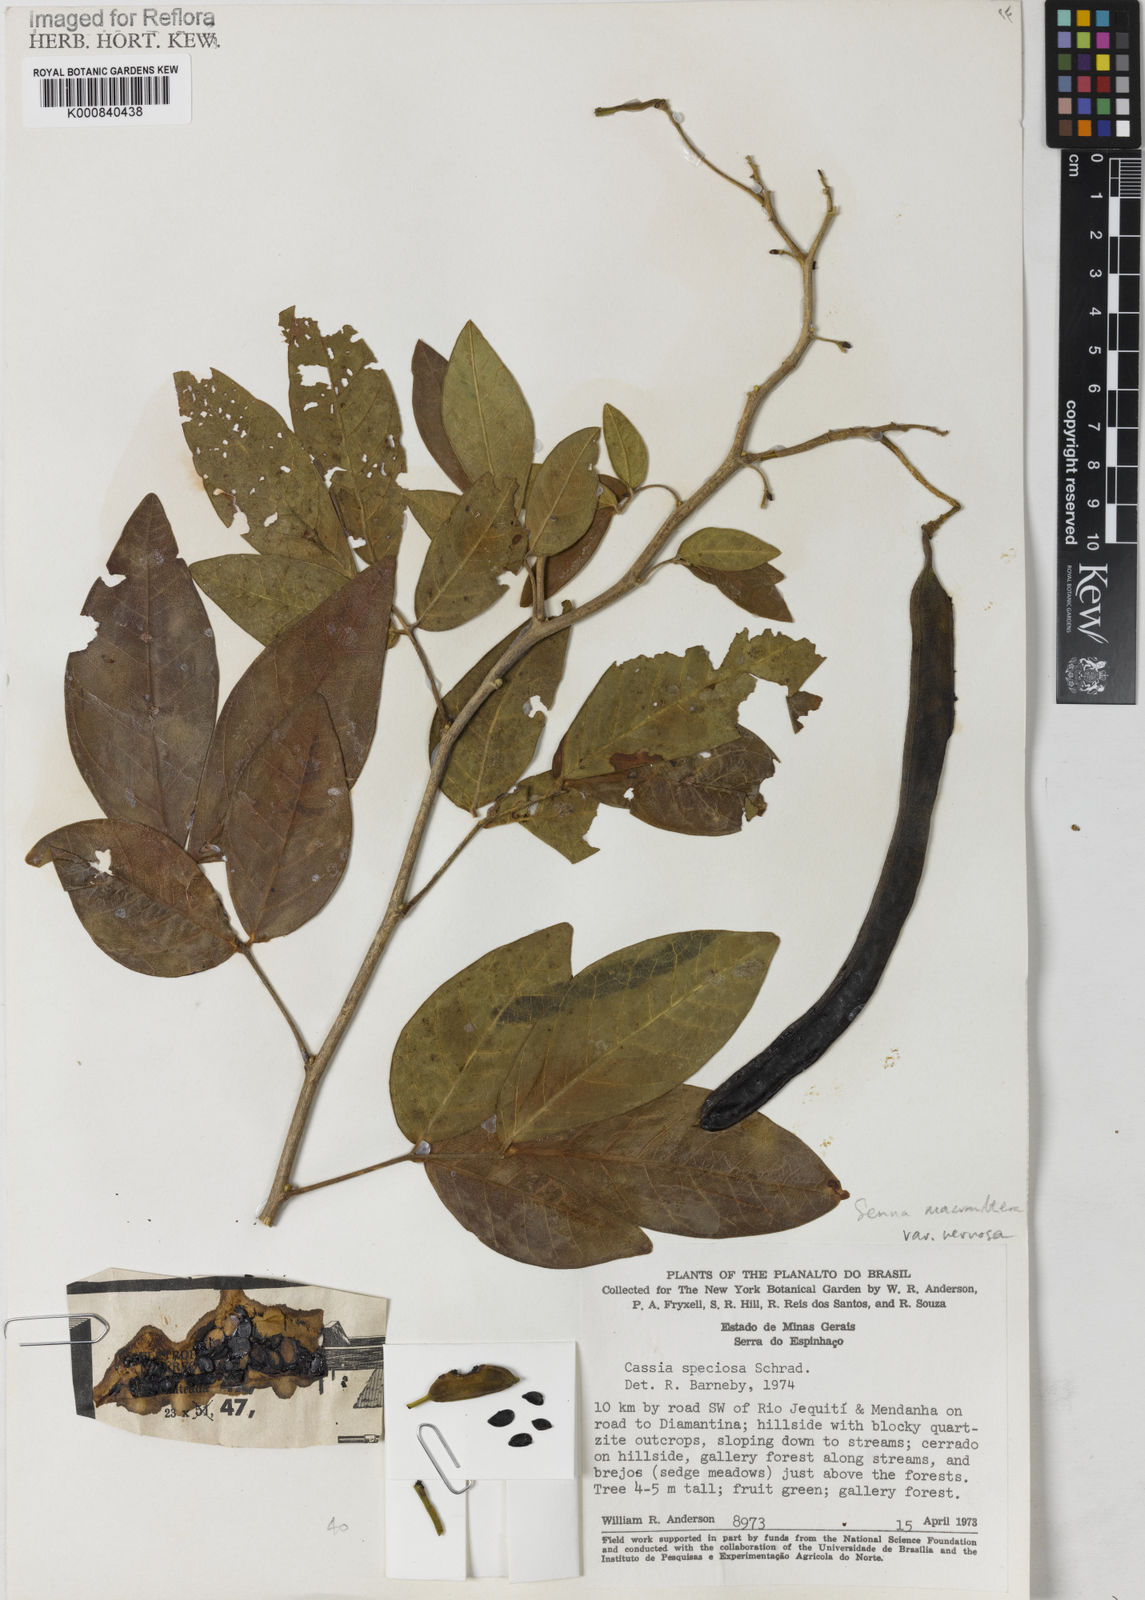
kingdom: Plantae
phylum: Tracheophyta
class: Magnoliopsida
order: Fabales
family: Fabaceae
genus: Senna
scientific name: Senna macranthera
